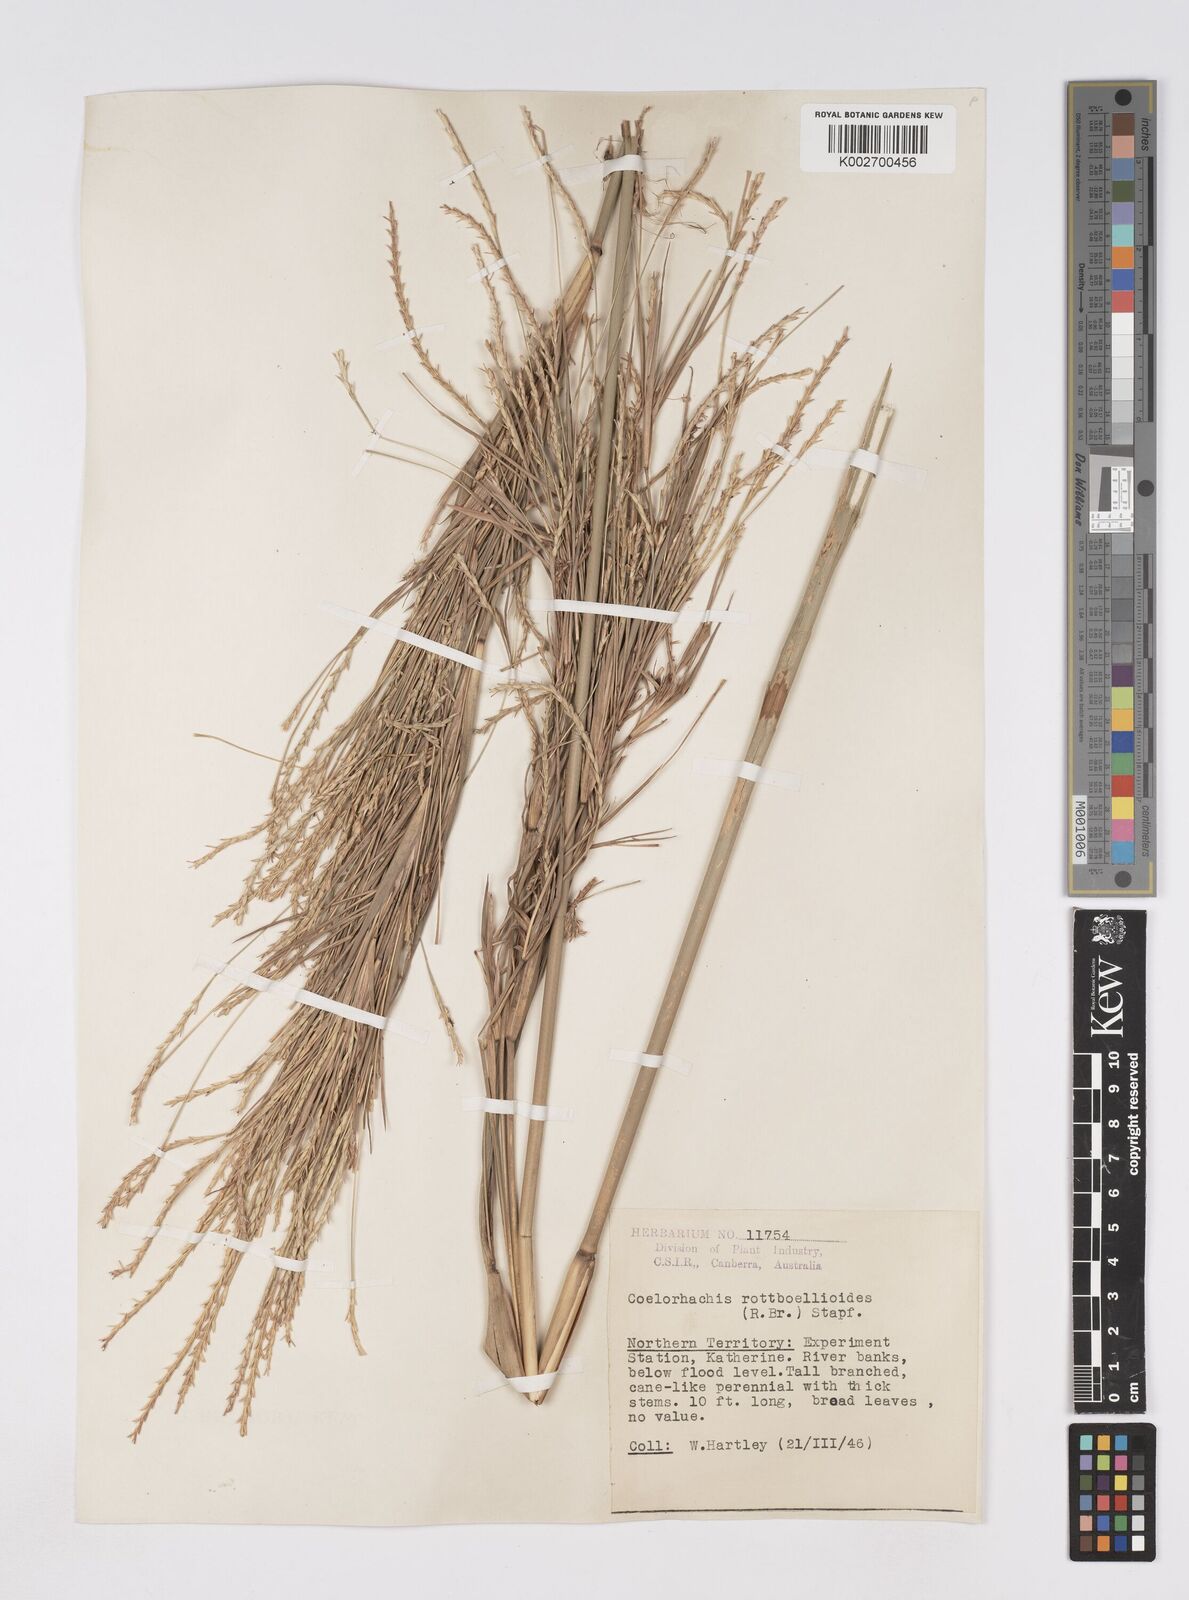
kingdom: Plantae
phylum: Tracheophyta
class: Liliopsida
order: Poales
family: Poaceae
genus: Rottboellia
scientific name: Rottboellia rottboellioides
